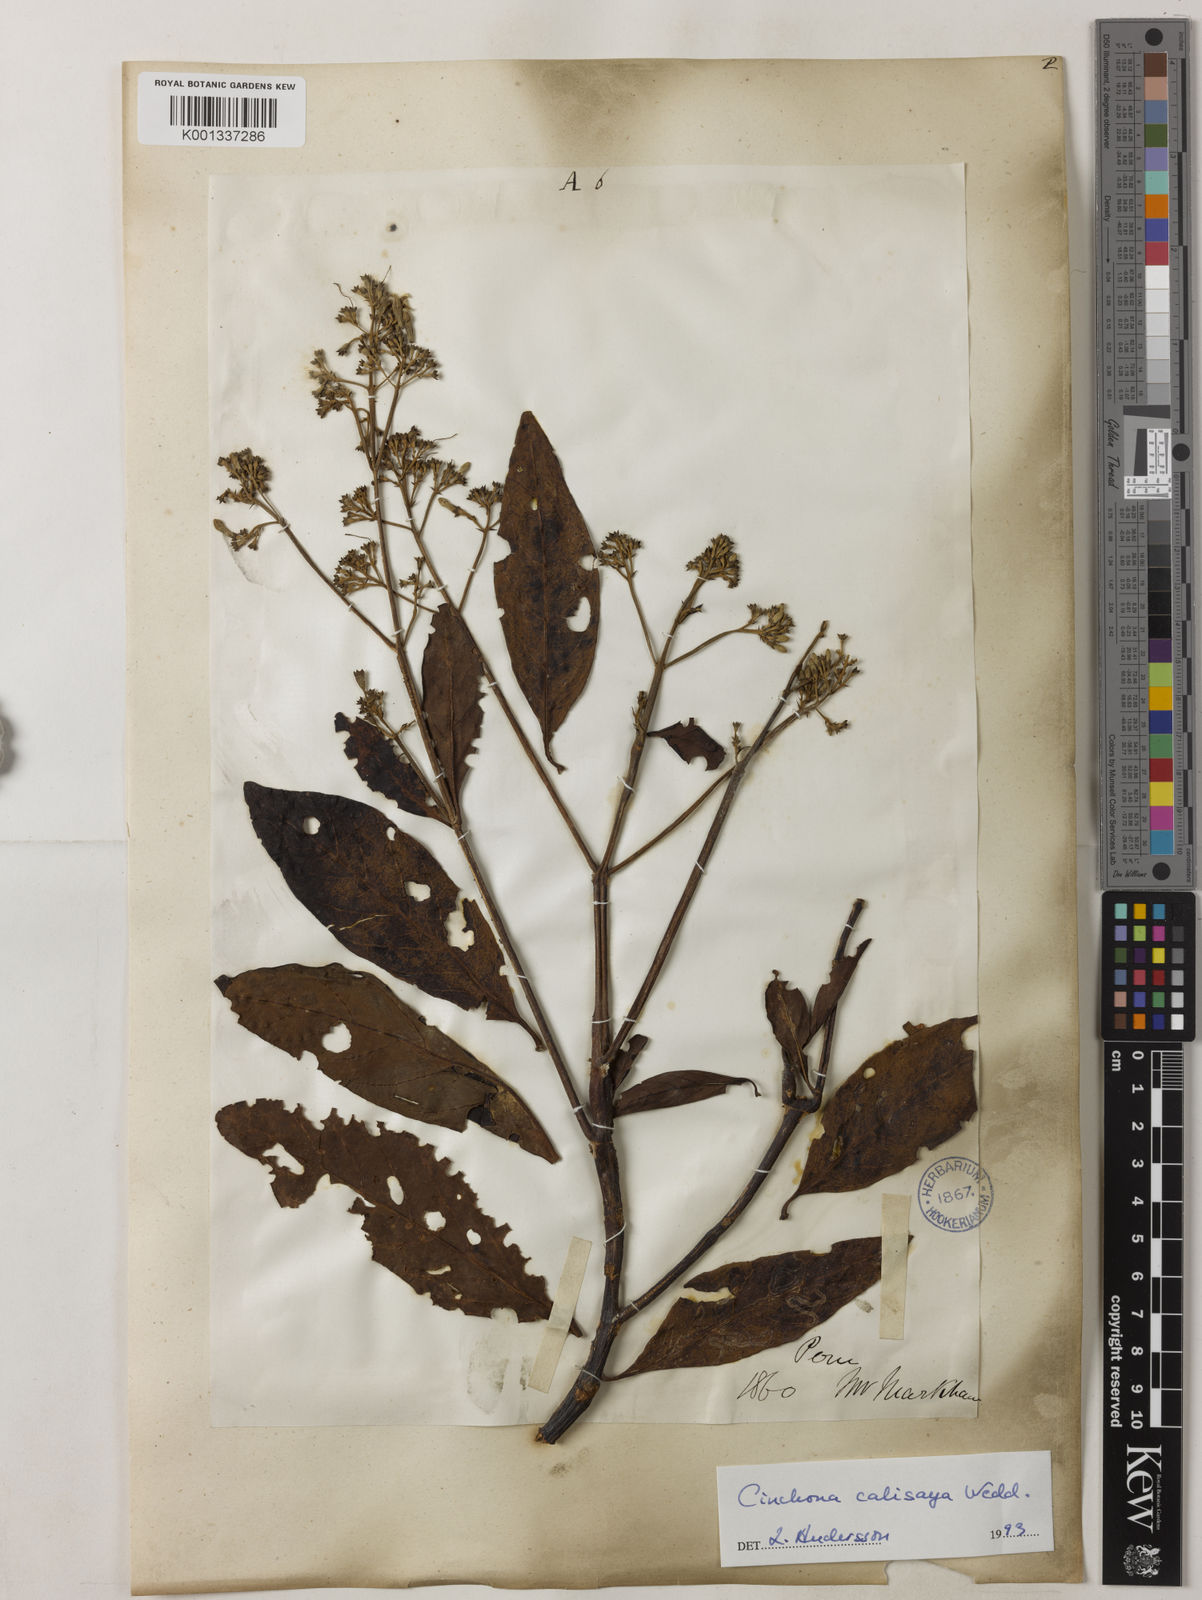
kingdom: Plantae
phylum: Tracheophyta
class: Magnoliopsida
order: Gentianales
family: Rubiaceae
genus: Cinchona
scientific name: Cinchona calisaya
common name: Ledgerbark
